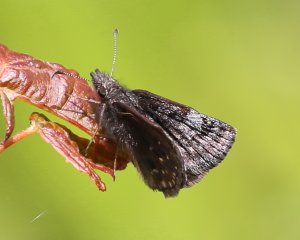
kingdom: Animalia
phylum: Arthropoda
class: Insecta
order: Lepidoptera
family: Hesperiidae
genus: Erynnis
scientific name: Erynnis icelus
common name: Dreamy Duskywing
